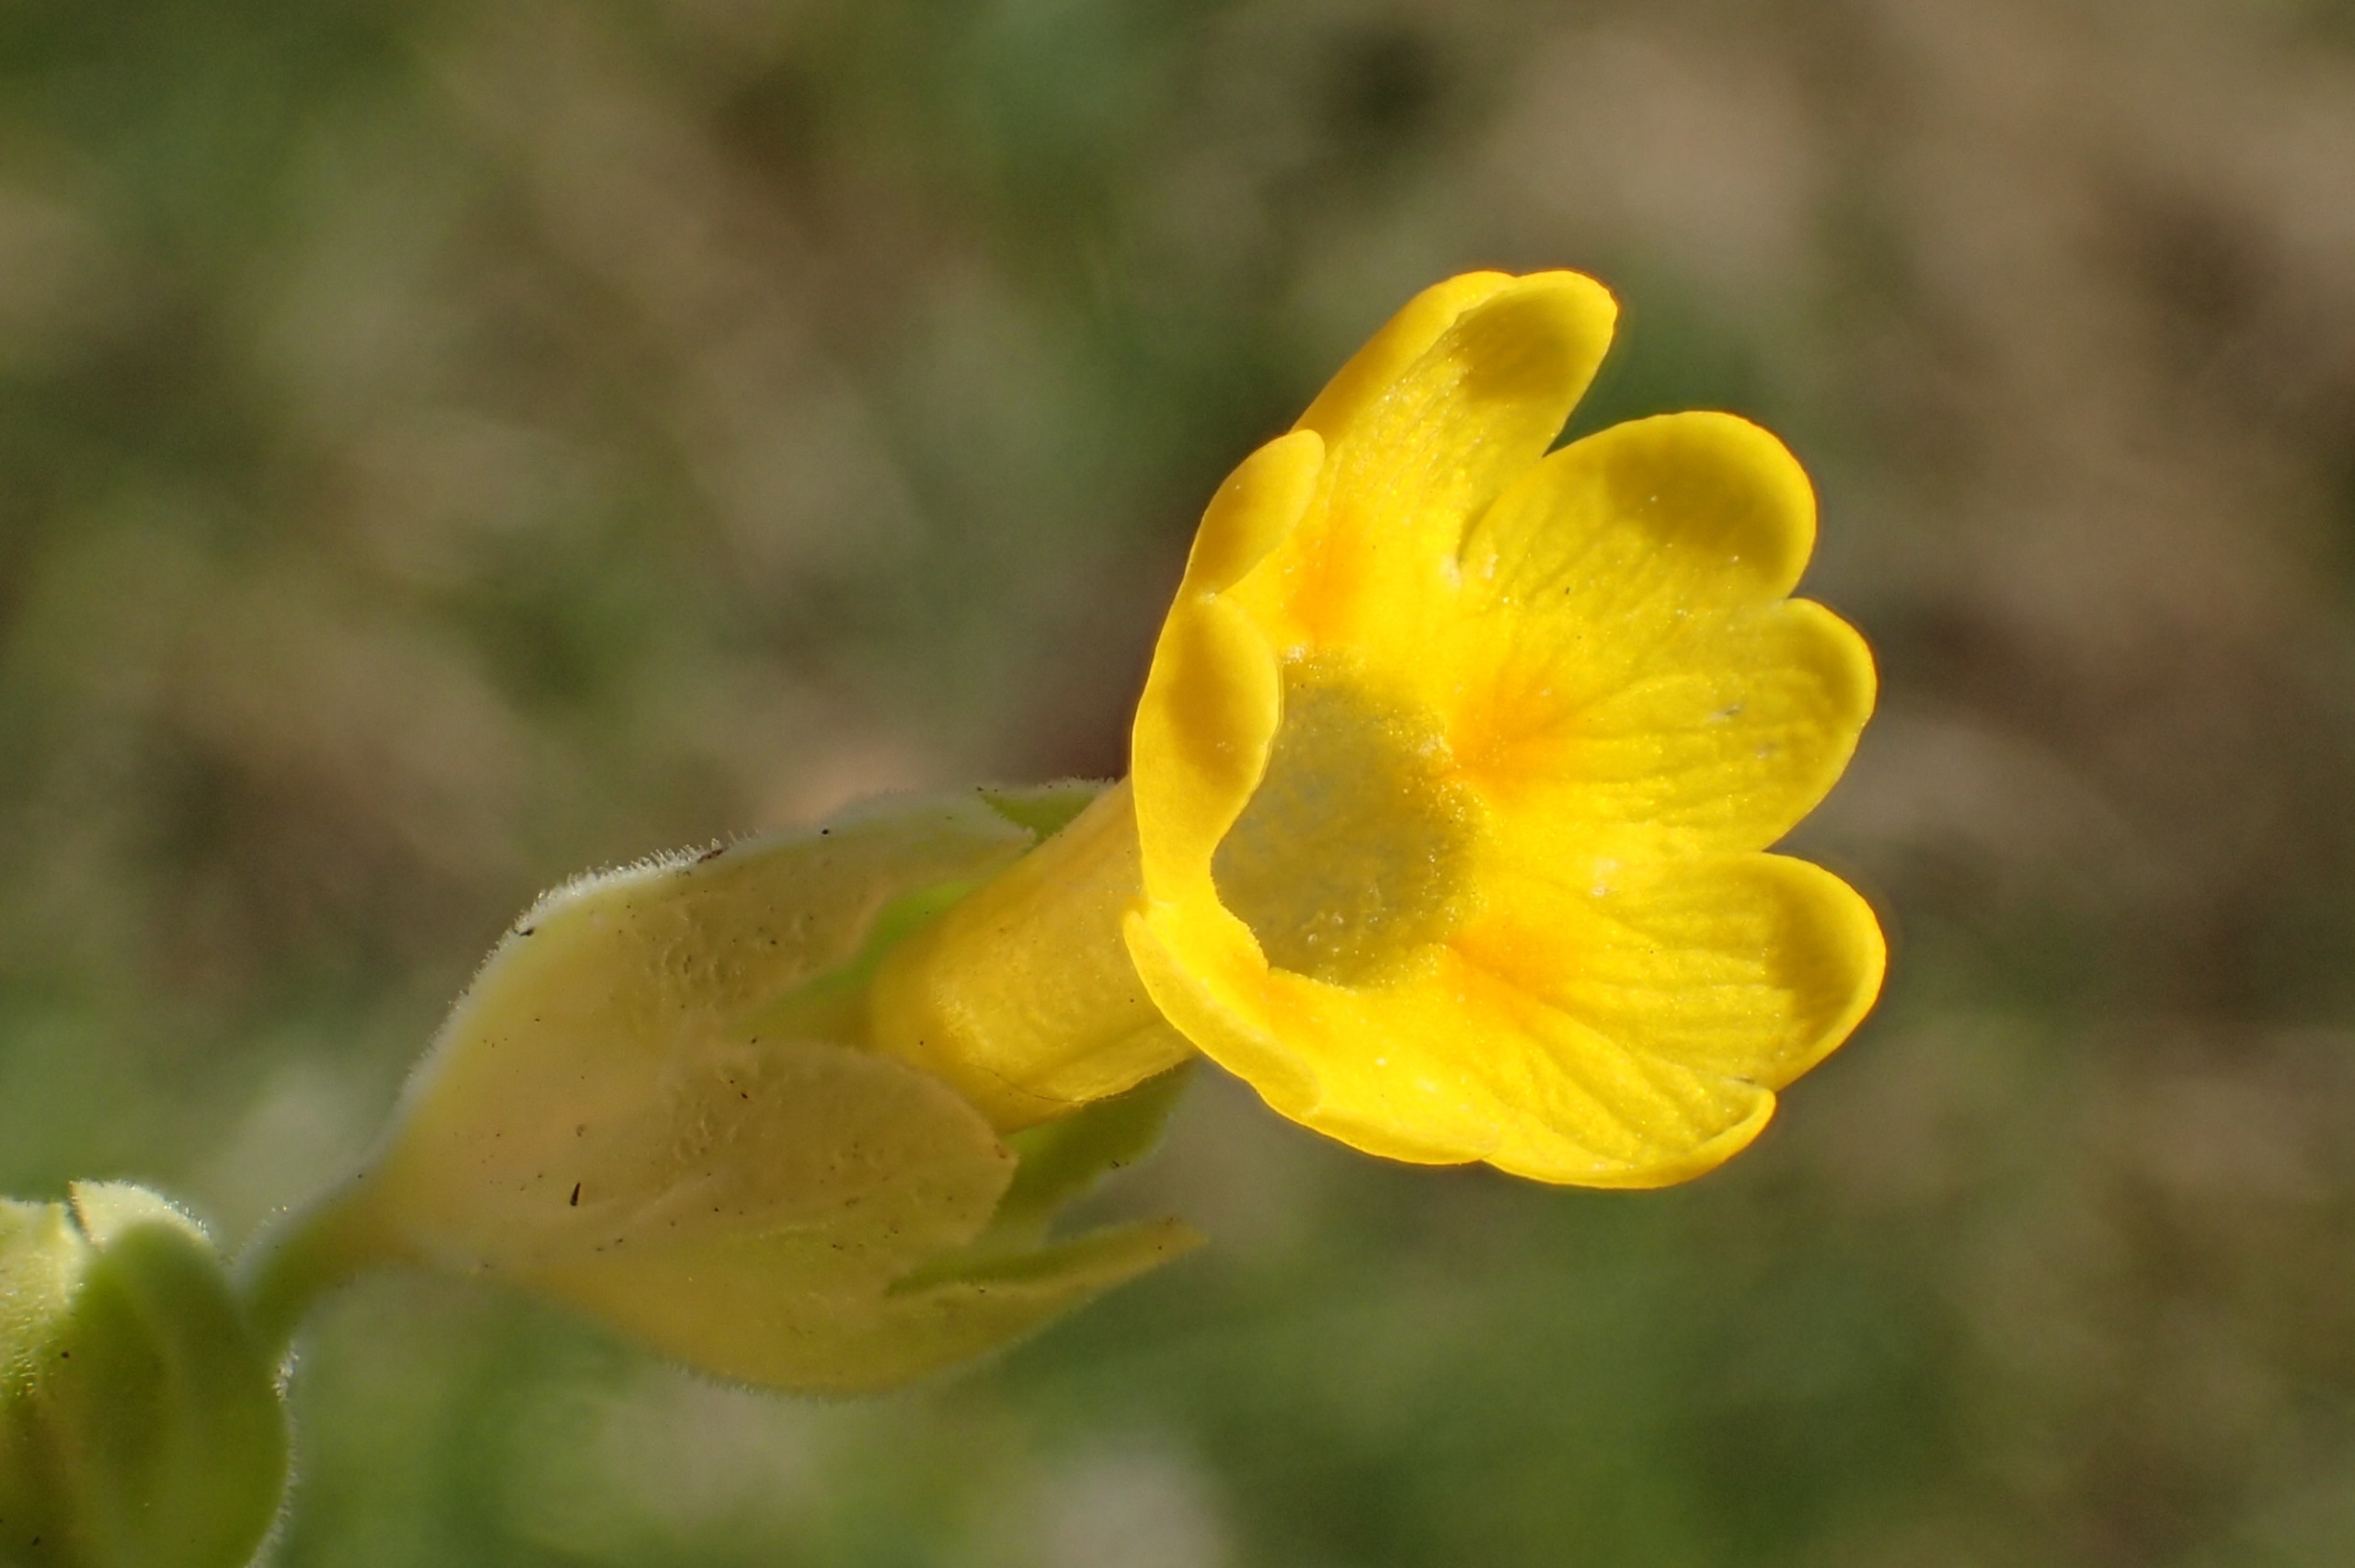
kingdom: Plantae
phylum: Tracheophyta
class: Magnoliopsida
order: Ericales
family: Primulaceae
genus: Primula
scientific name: Primula veris
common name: Hulkravet kodriver
